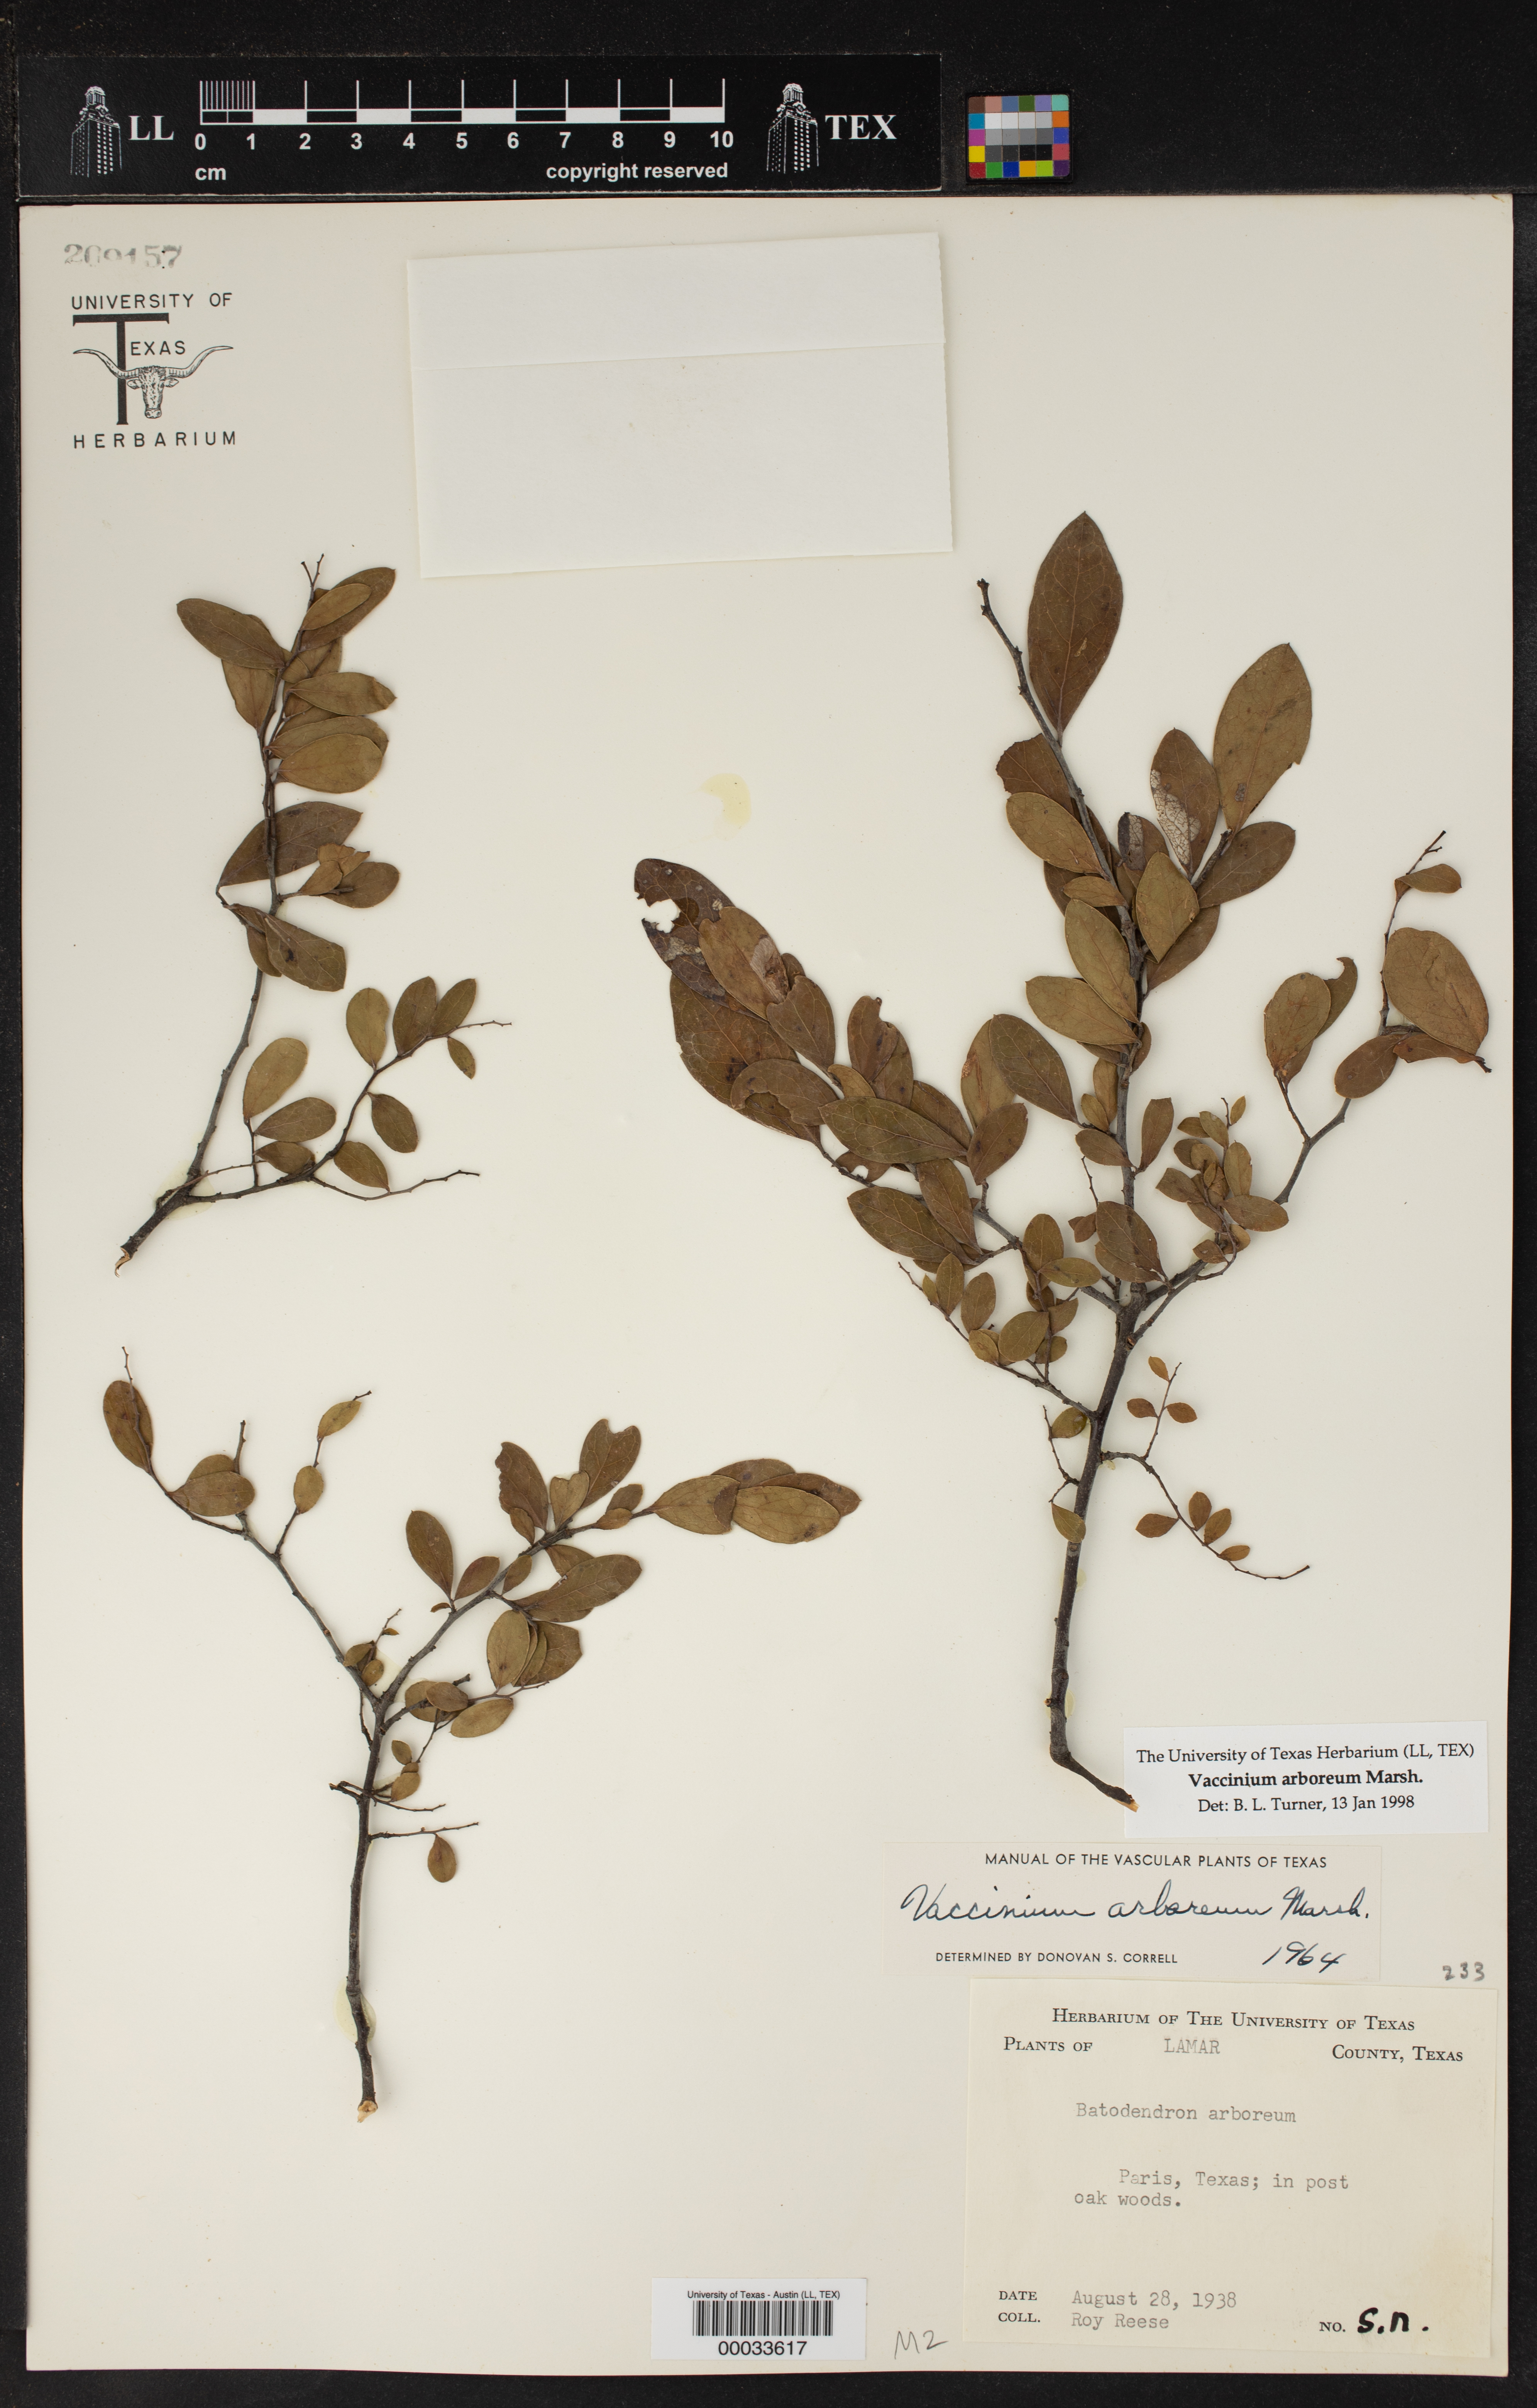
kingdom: Plantae
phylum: Tracheophyta
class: Magnoliopsida
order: Ericales
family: Ericaceae
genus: Vaccinium
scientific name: Vaccinium arboreum
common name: Farkleberry
